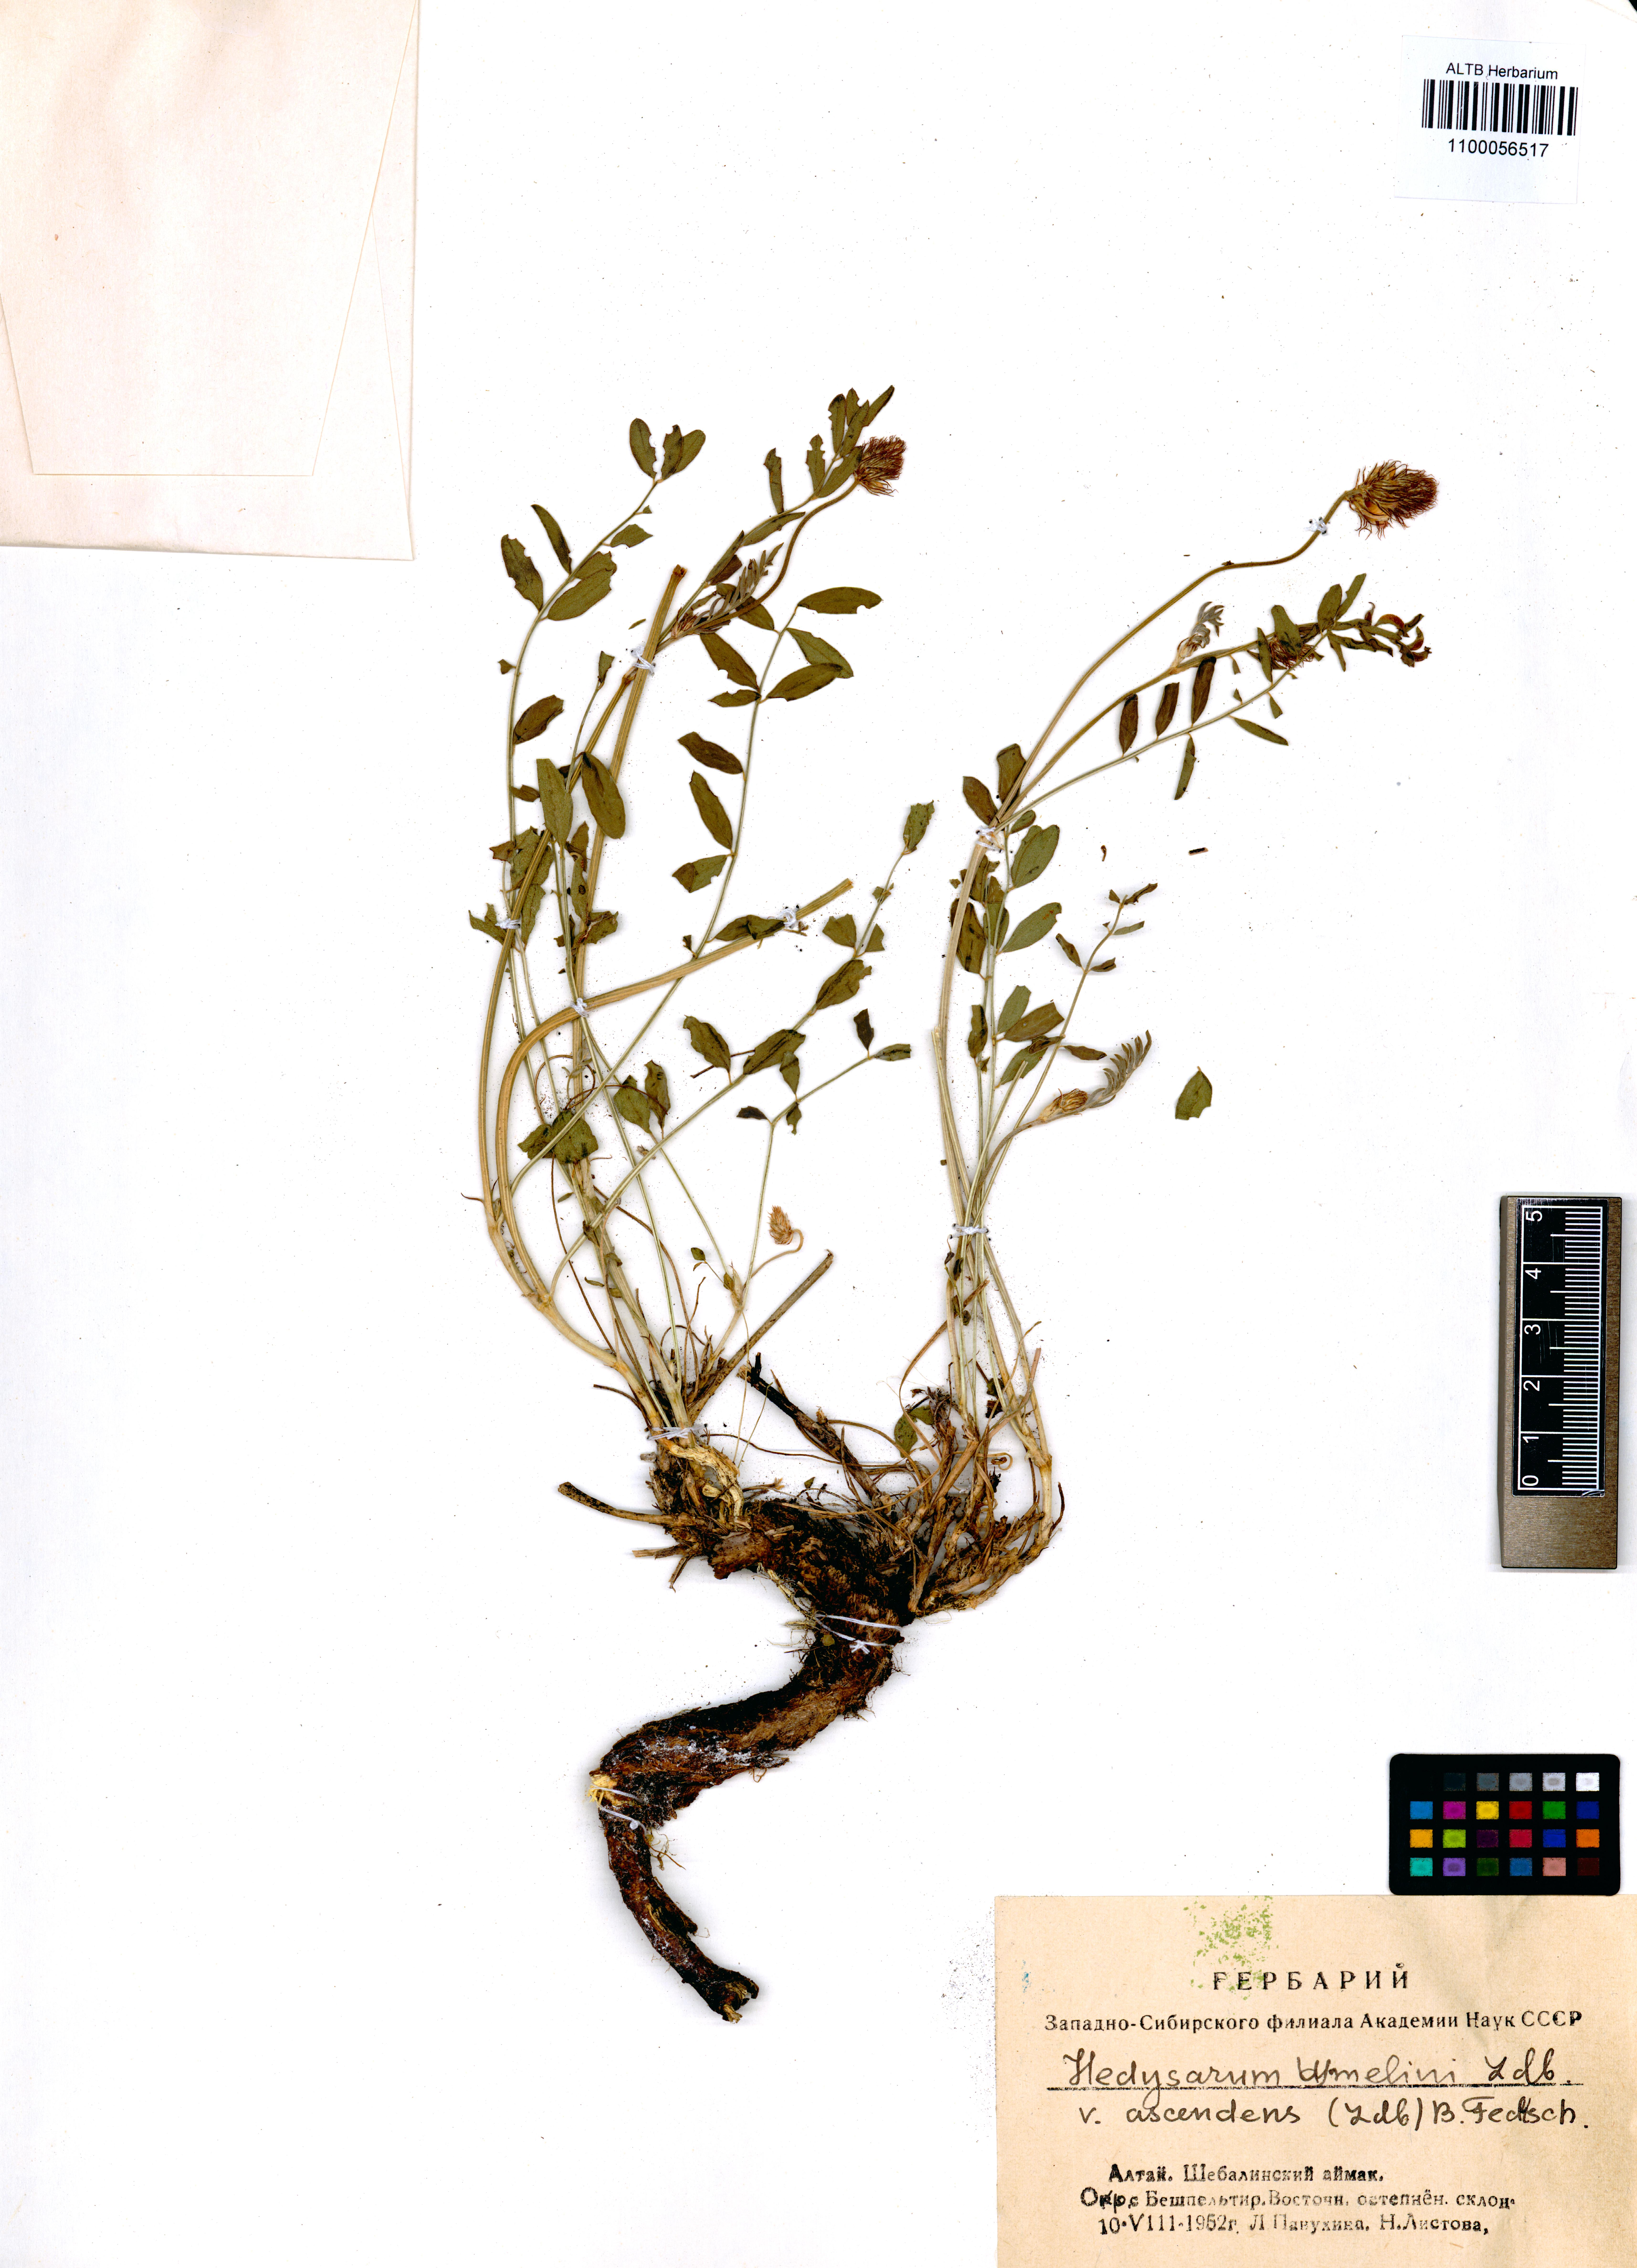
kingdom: Plantae
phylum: Tracheophyta
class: Magnoliopsida
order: Fabales
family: Fabaceae
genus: Hedysarum
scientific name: Hedysarum gmelinii
